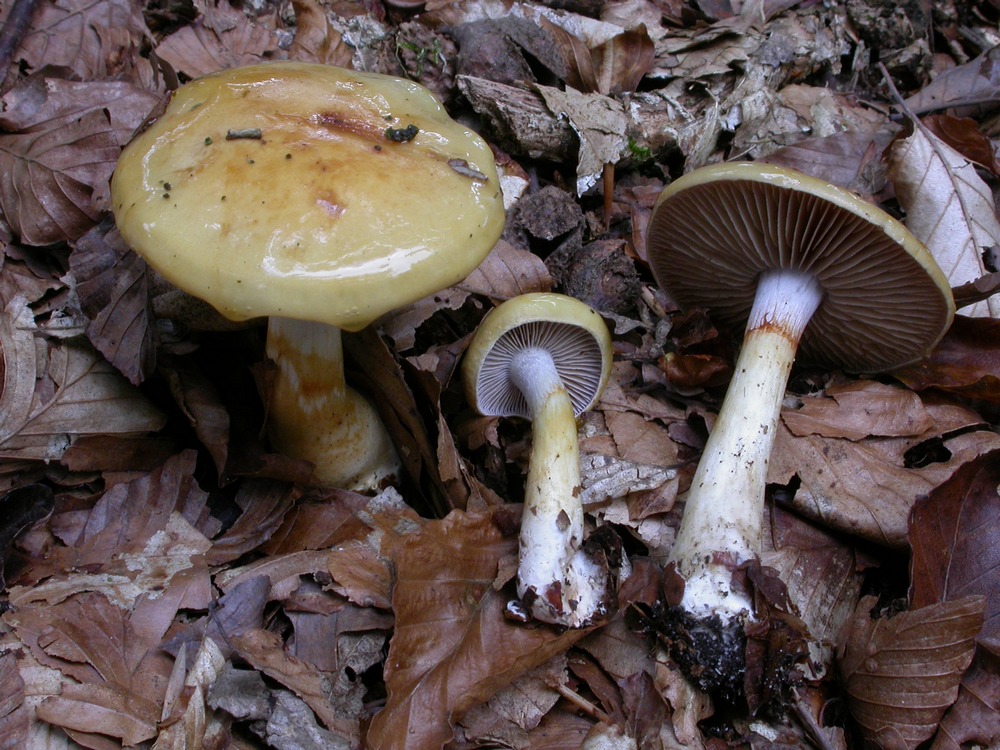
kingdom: Fungi
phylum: Basidiomycota
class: Agaricomycetes
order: Agaricales
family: Cortinariaceae
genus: Cortinarius
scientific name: Cortinarius delibutus
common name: gul slørhat
